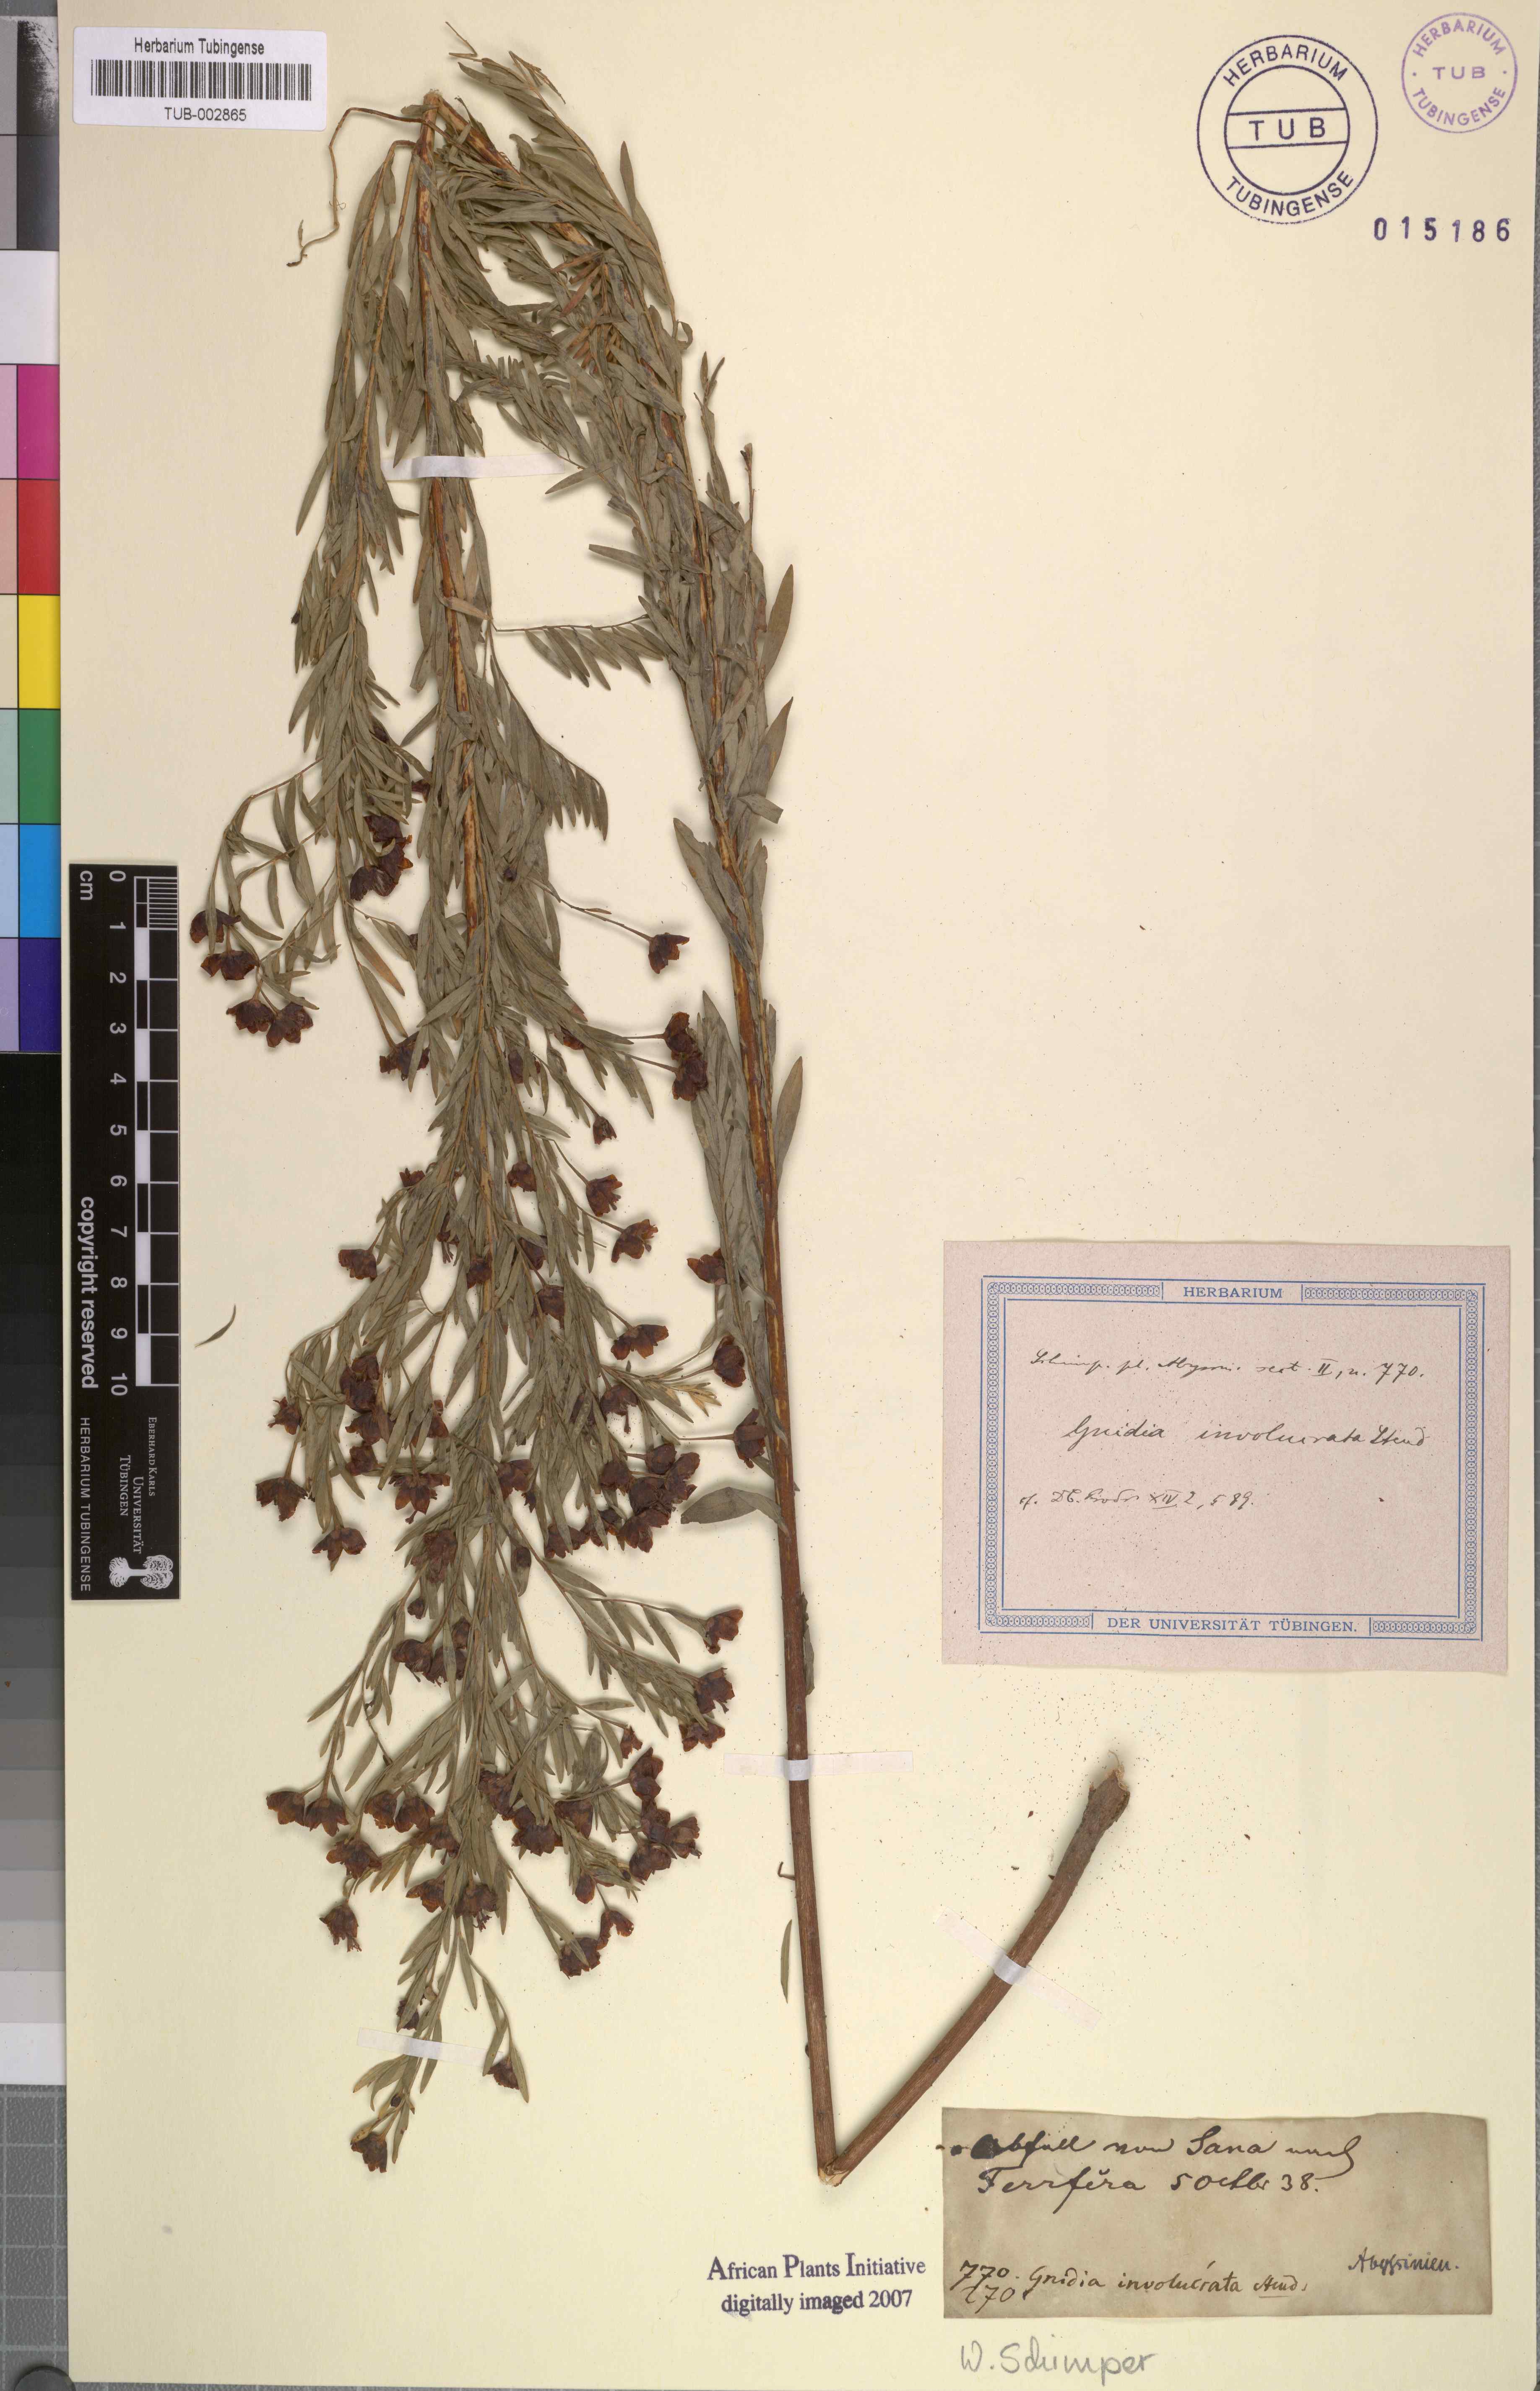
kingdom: Plantae
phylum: Tracheophyta
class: Magnoliopsida
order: Malvales
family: Thymelaeaceae
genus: Gnidia
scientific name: Gnidia involucrata
